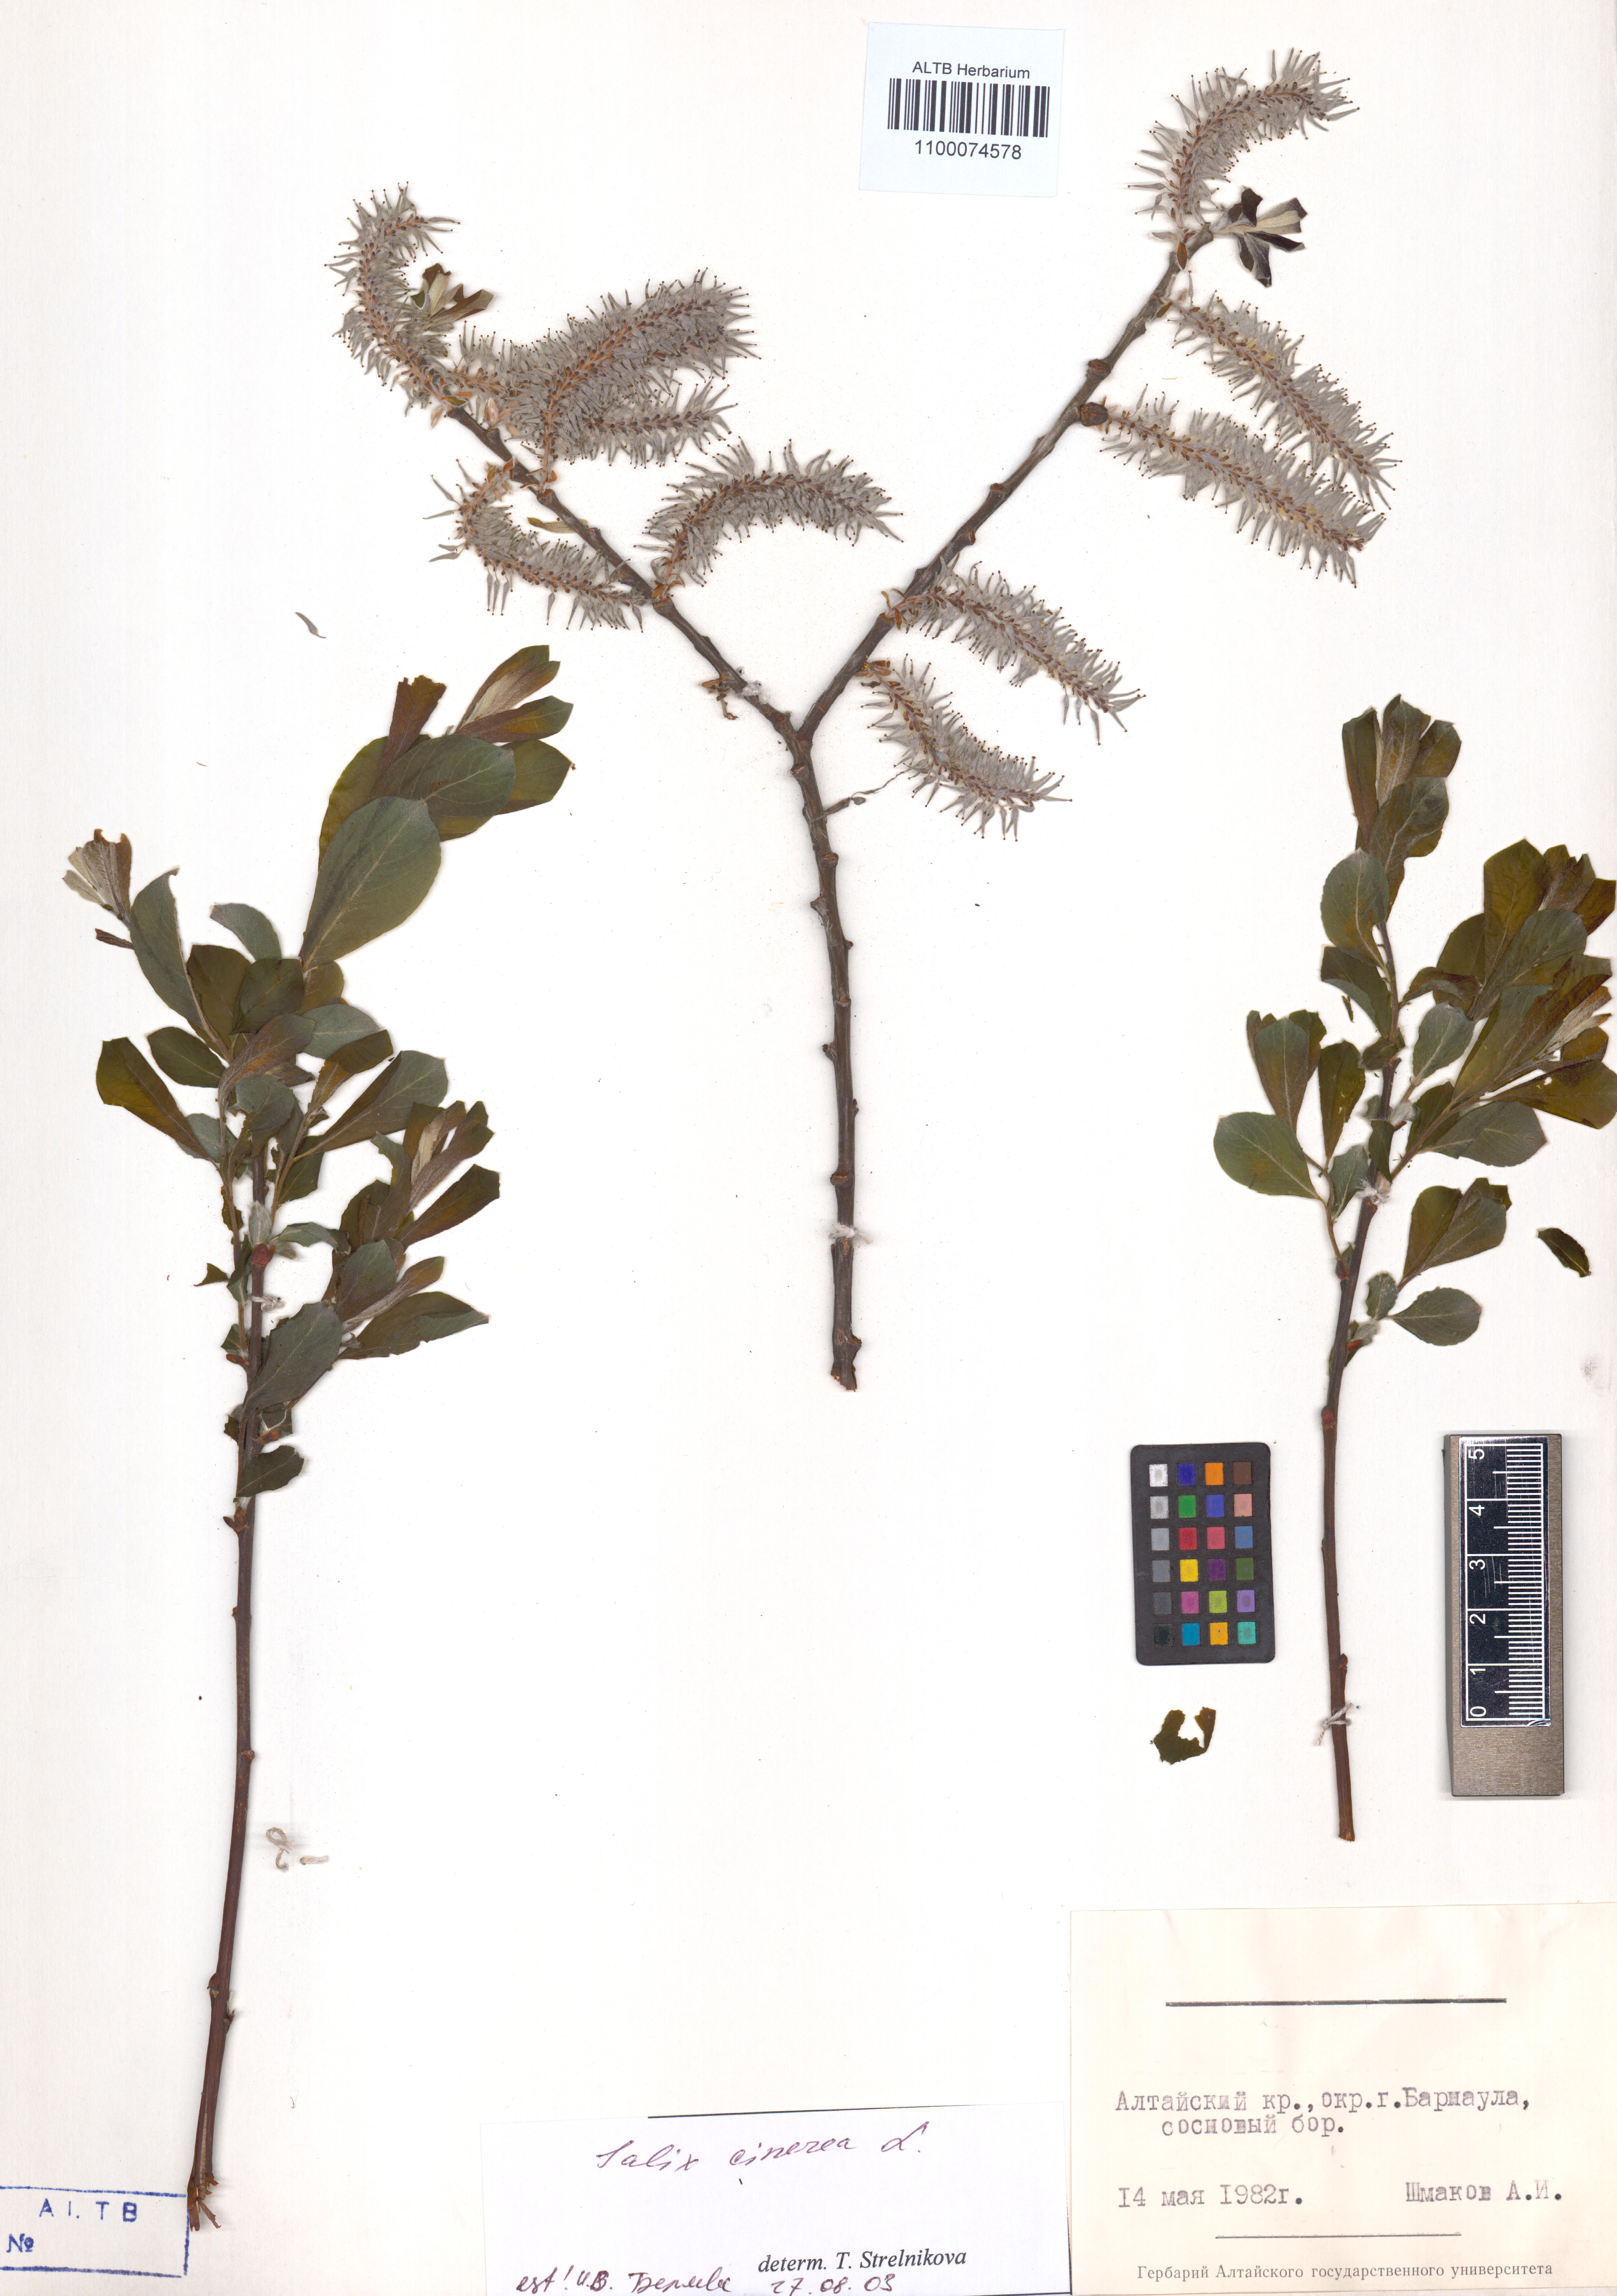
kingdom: Plantae
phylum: Tracheophyta
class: Magnoliopsida
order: Malpighiales
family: Salicaceae
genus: Salix
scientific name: Salix cinerea
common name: Common sallow
